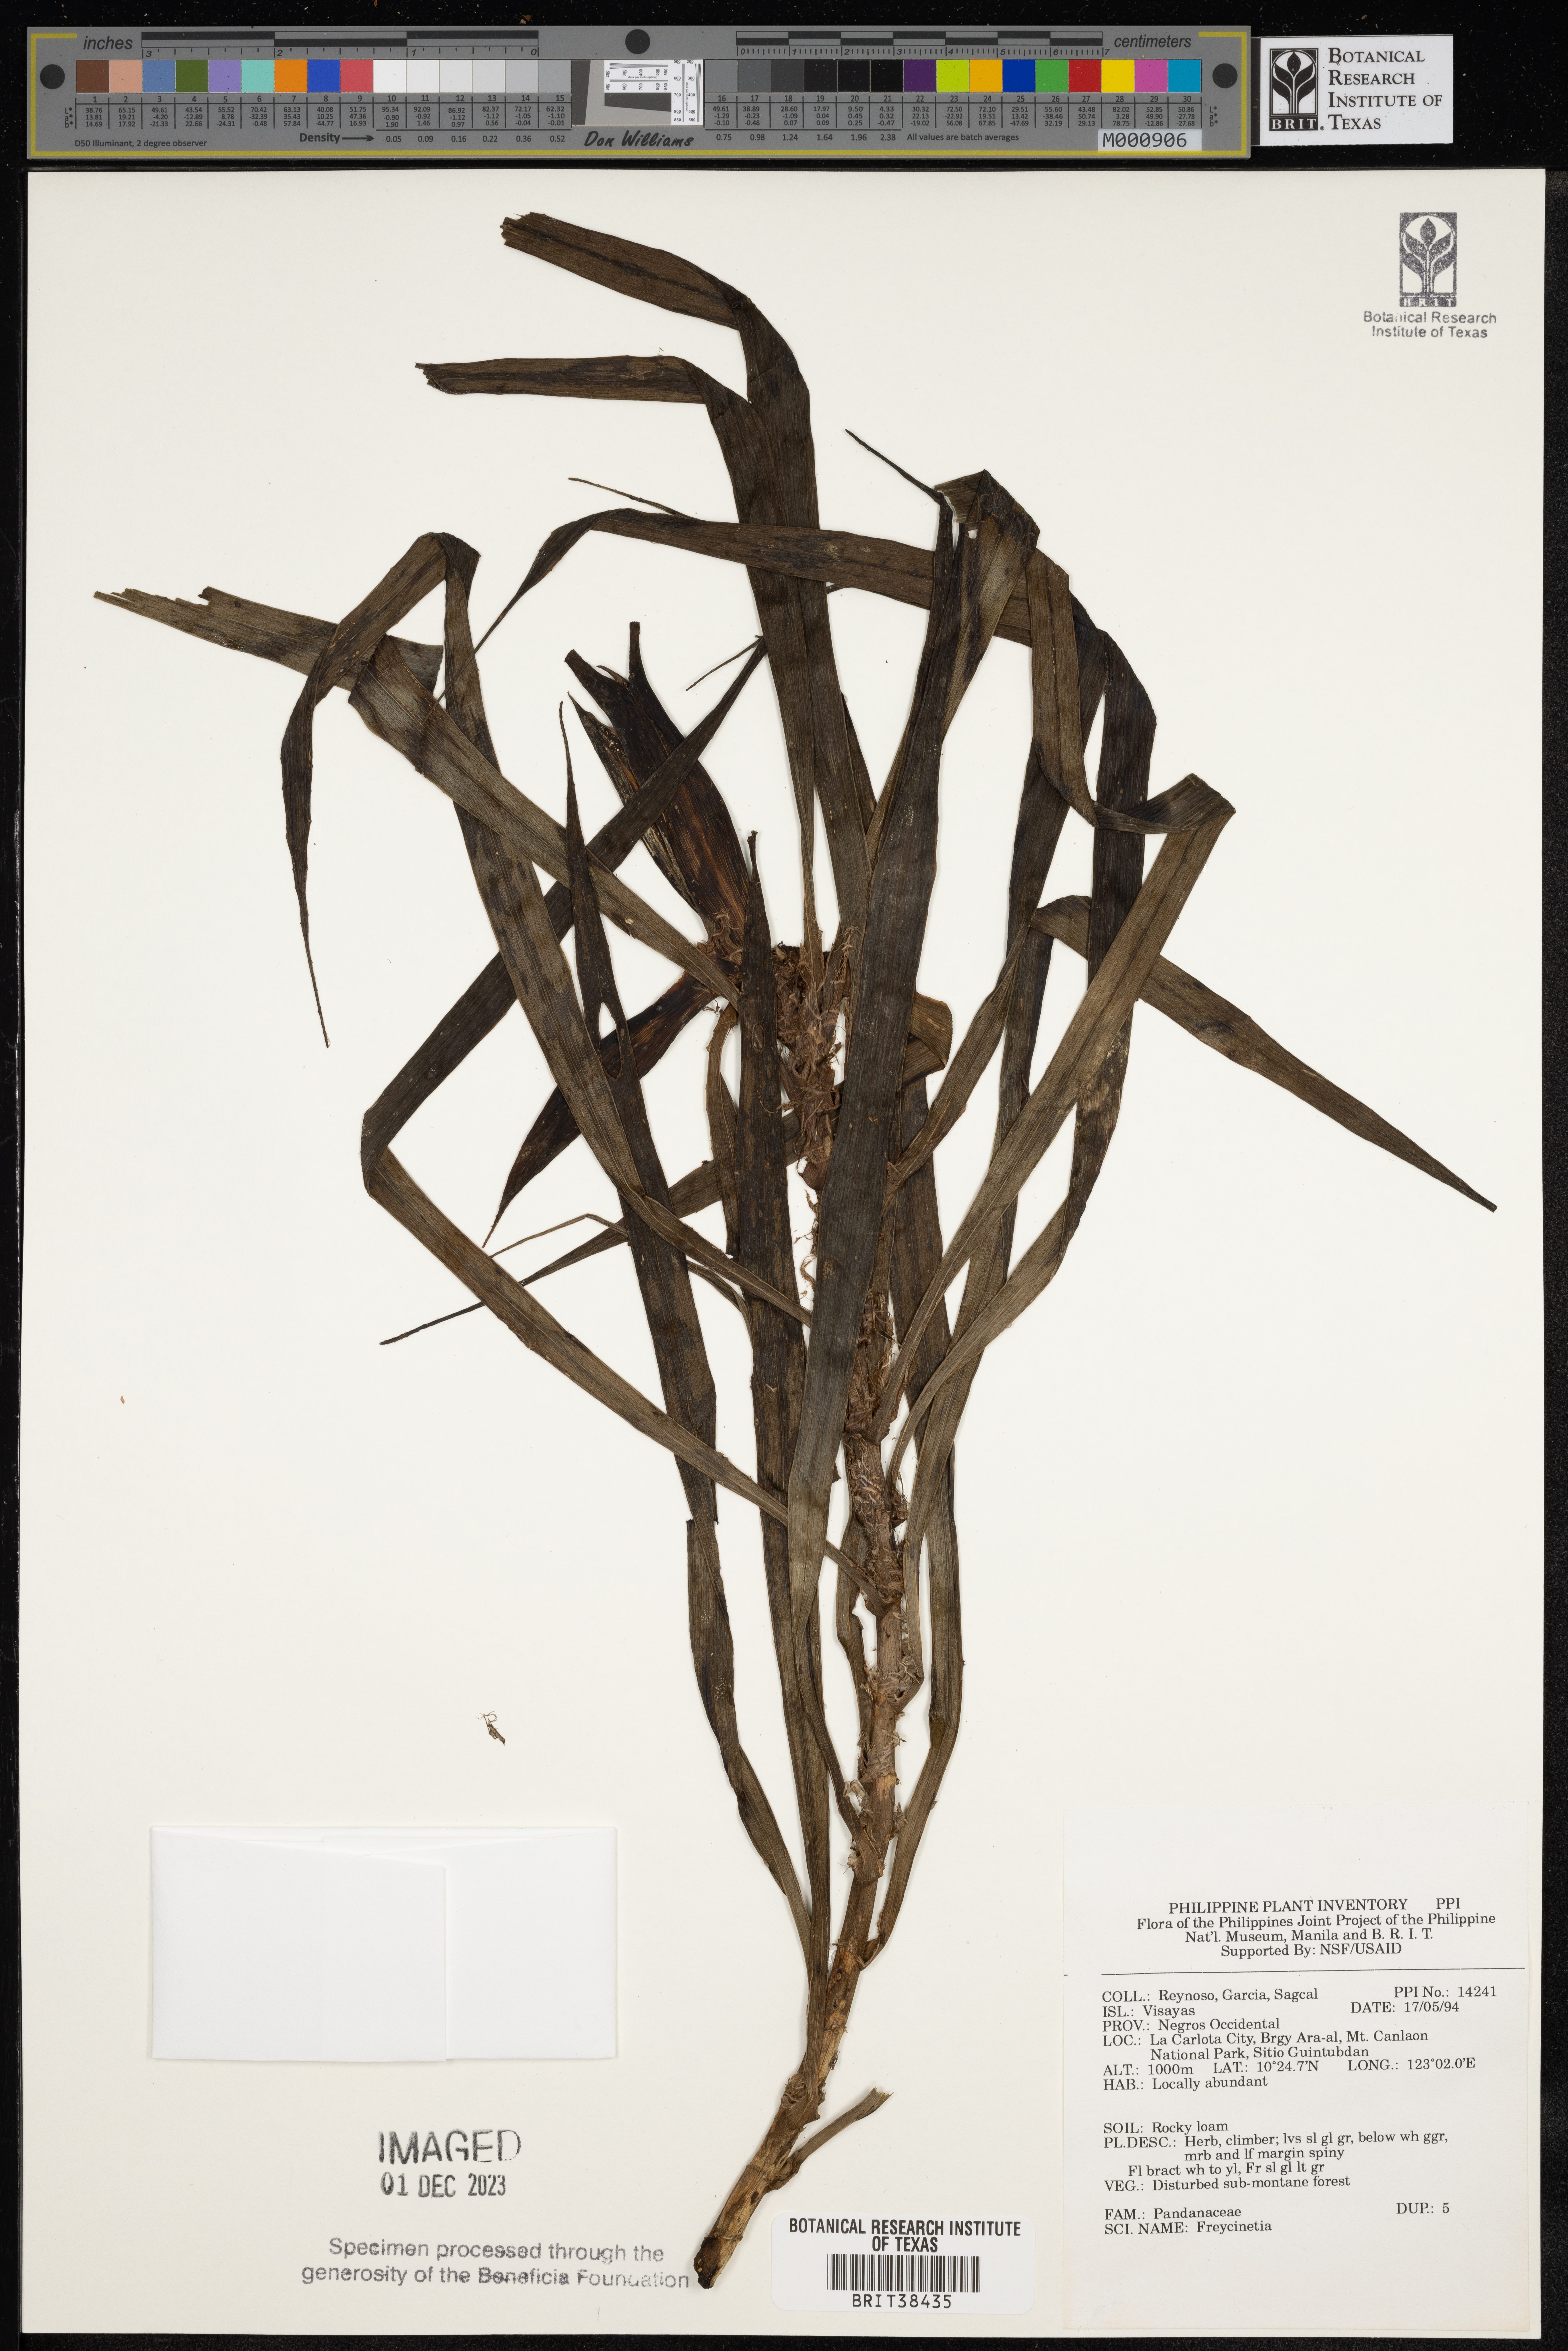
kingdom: Plantae
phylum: Tracheophyta
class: Liliopsida
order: Pandanales
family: Pandanaceae
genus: Freycinetia
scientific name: Freycinetia
